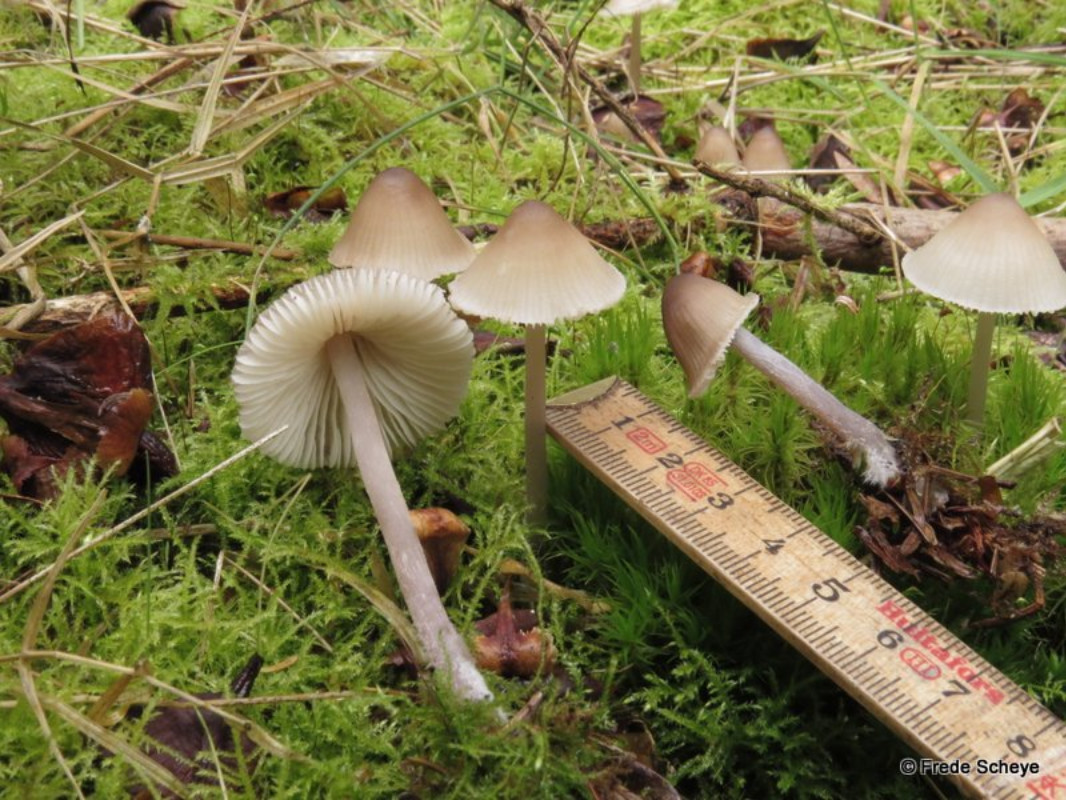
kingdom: Fungi
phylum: Basidiomycota
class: Agaricomycetes
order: Agaricales
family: Mycenaceae
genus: Mycena
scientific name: Mycena zephirus
